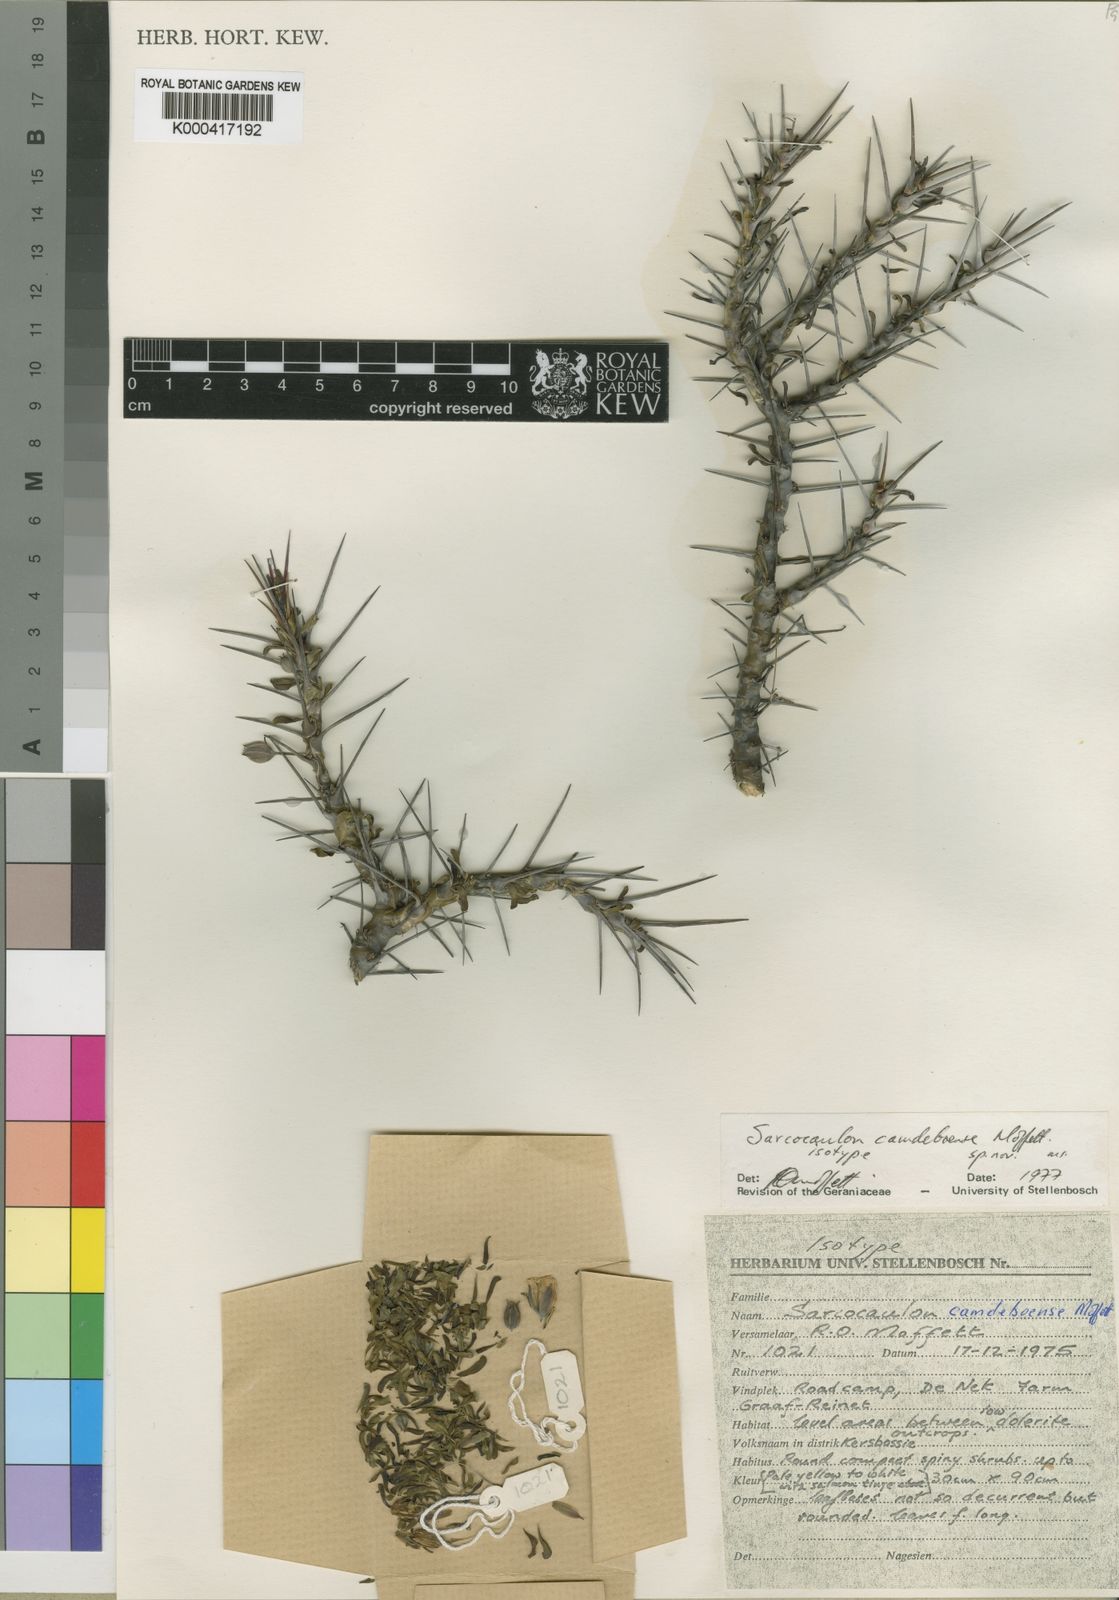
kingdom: Plantae
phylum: Tracheophyta
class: Magnoliopsida
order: Geraniales
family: Geraniaceae
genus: Monsonia
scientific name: Monsonia camdeboensis
